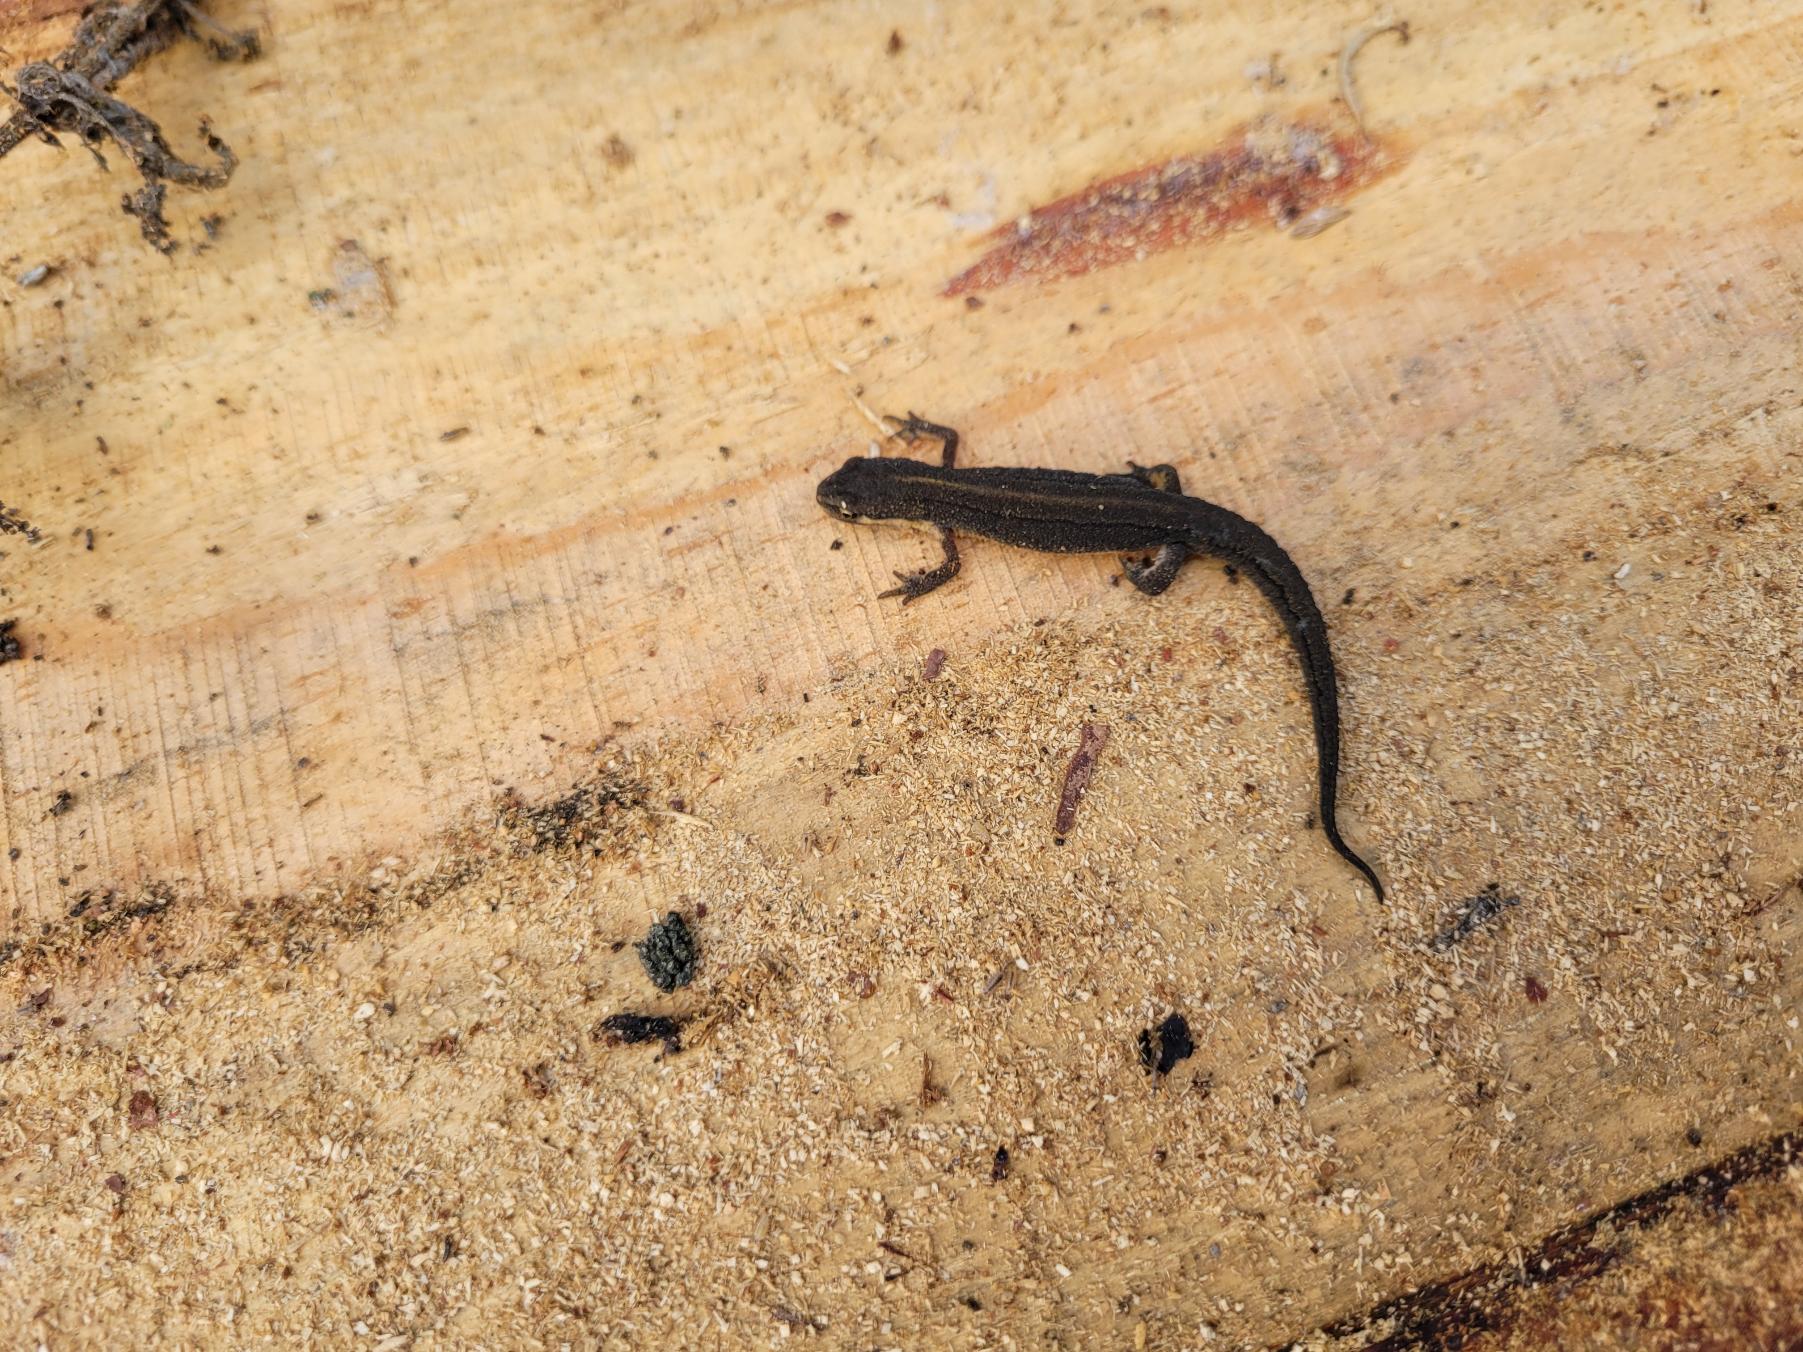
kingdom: Animalia
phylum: Chordata
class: Amphibia
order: Caudata
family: Salamandridae
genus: Lissotriton
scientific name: Lissotriton vulgaris
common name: Lille vandsalamander
